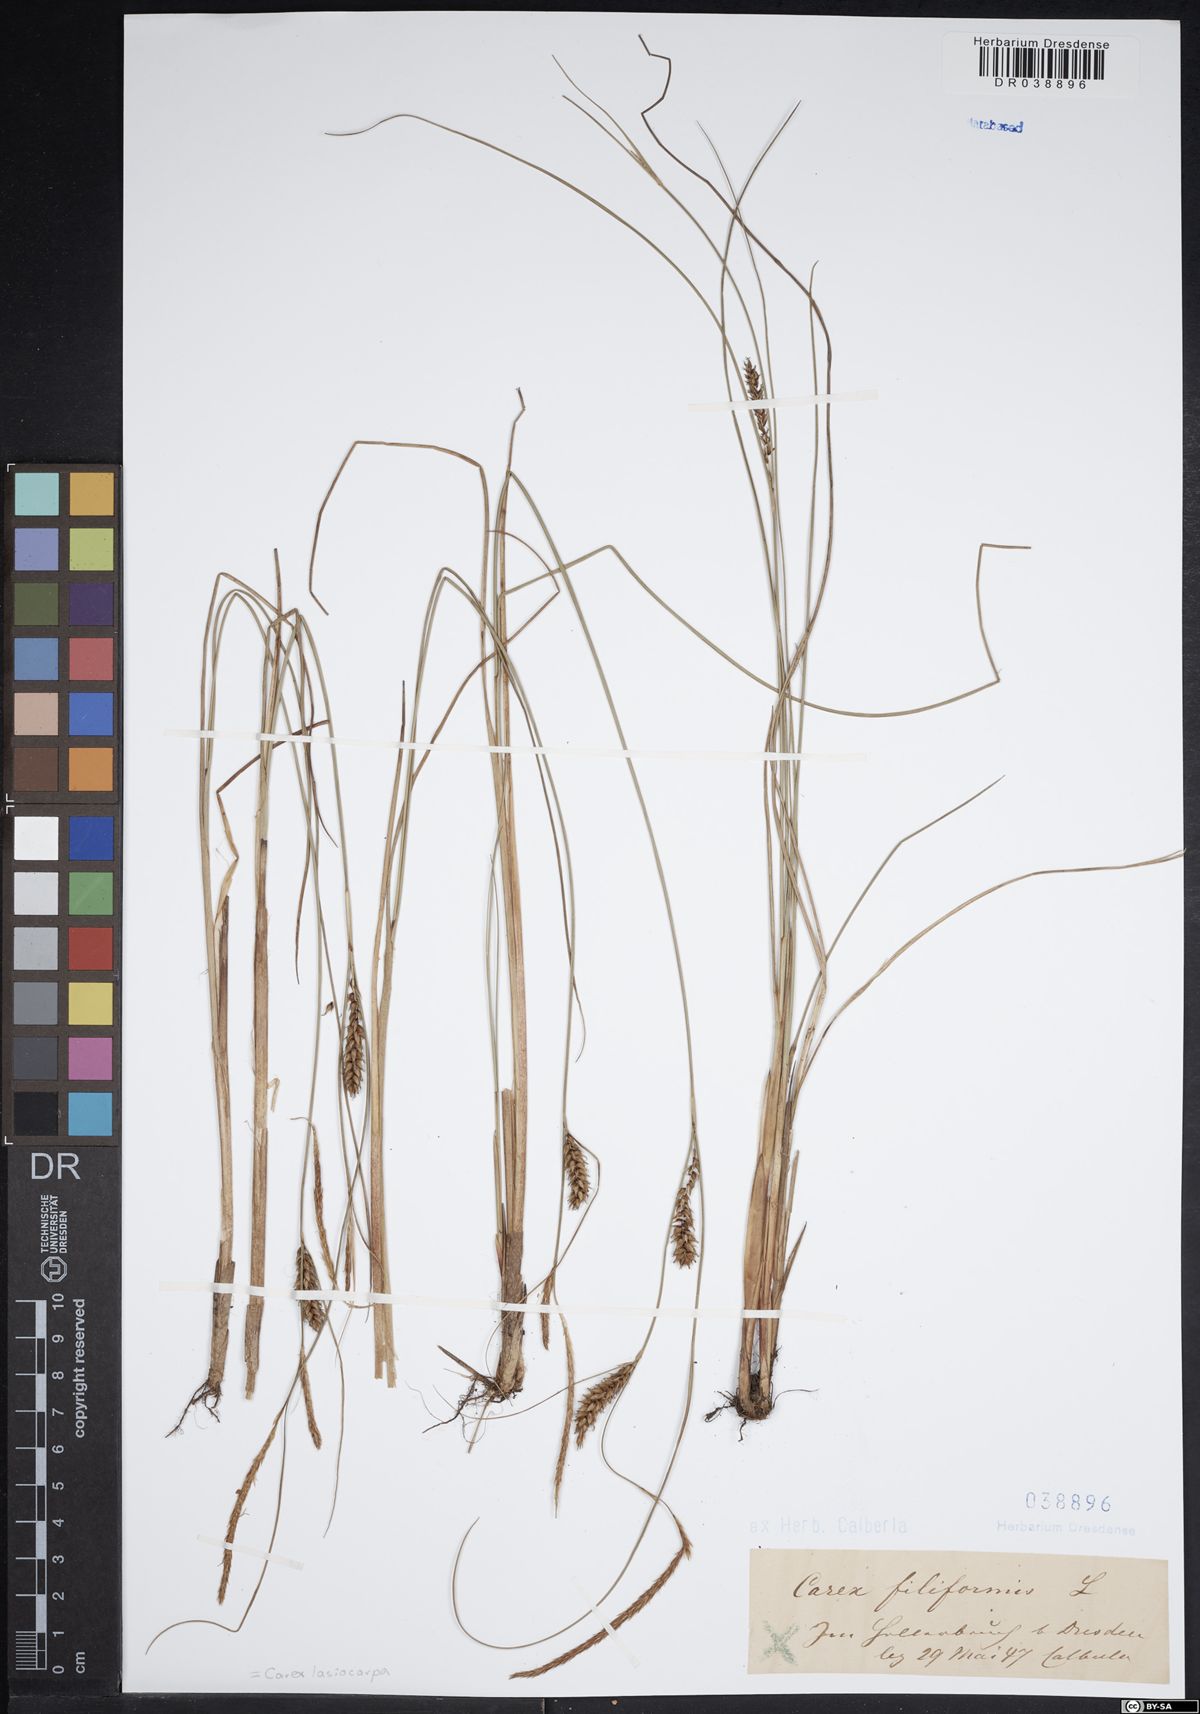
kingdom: Plantae
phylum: Tracheophyta
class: Liliopsida
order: Poales
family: Cyperaceae
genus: Carex
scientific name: Carex lasiocarpa
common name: Slender sedge
